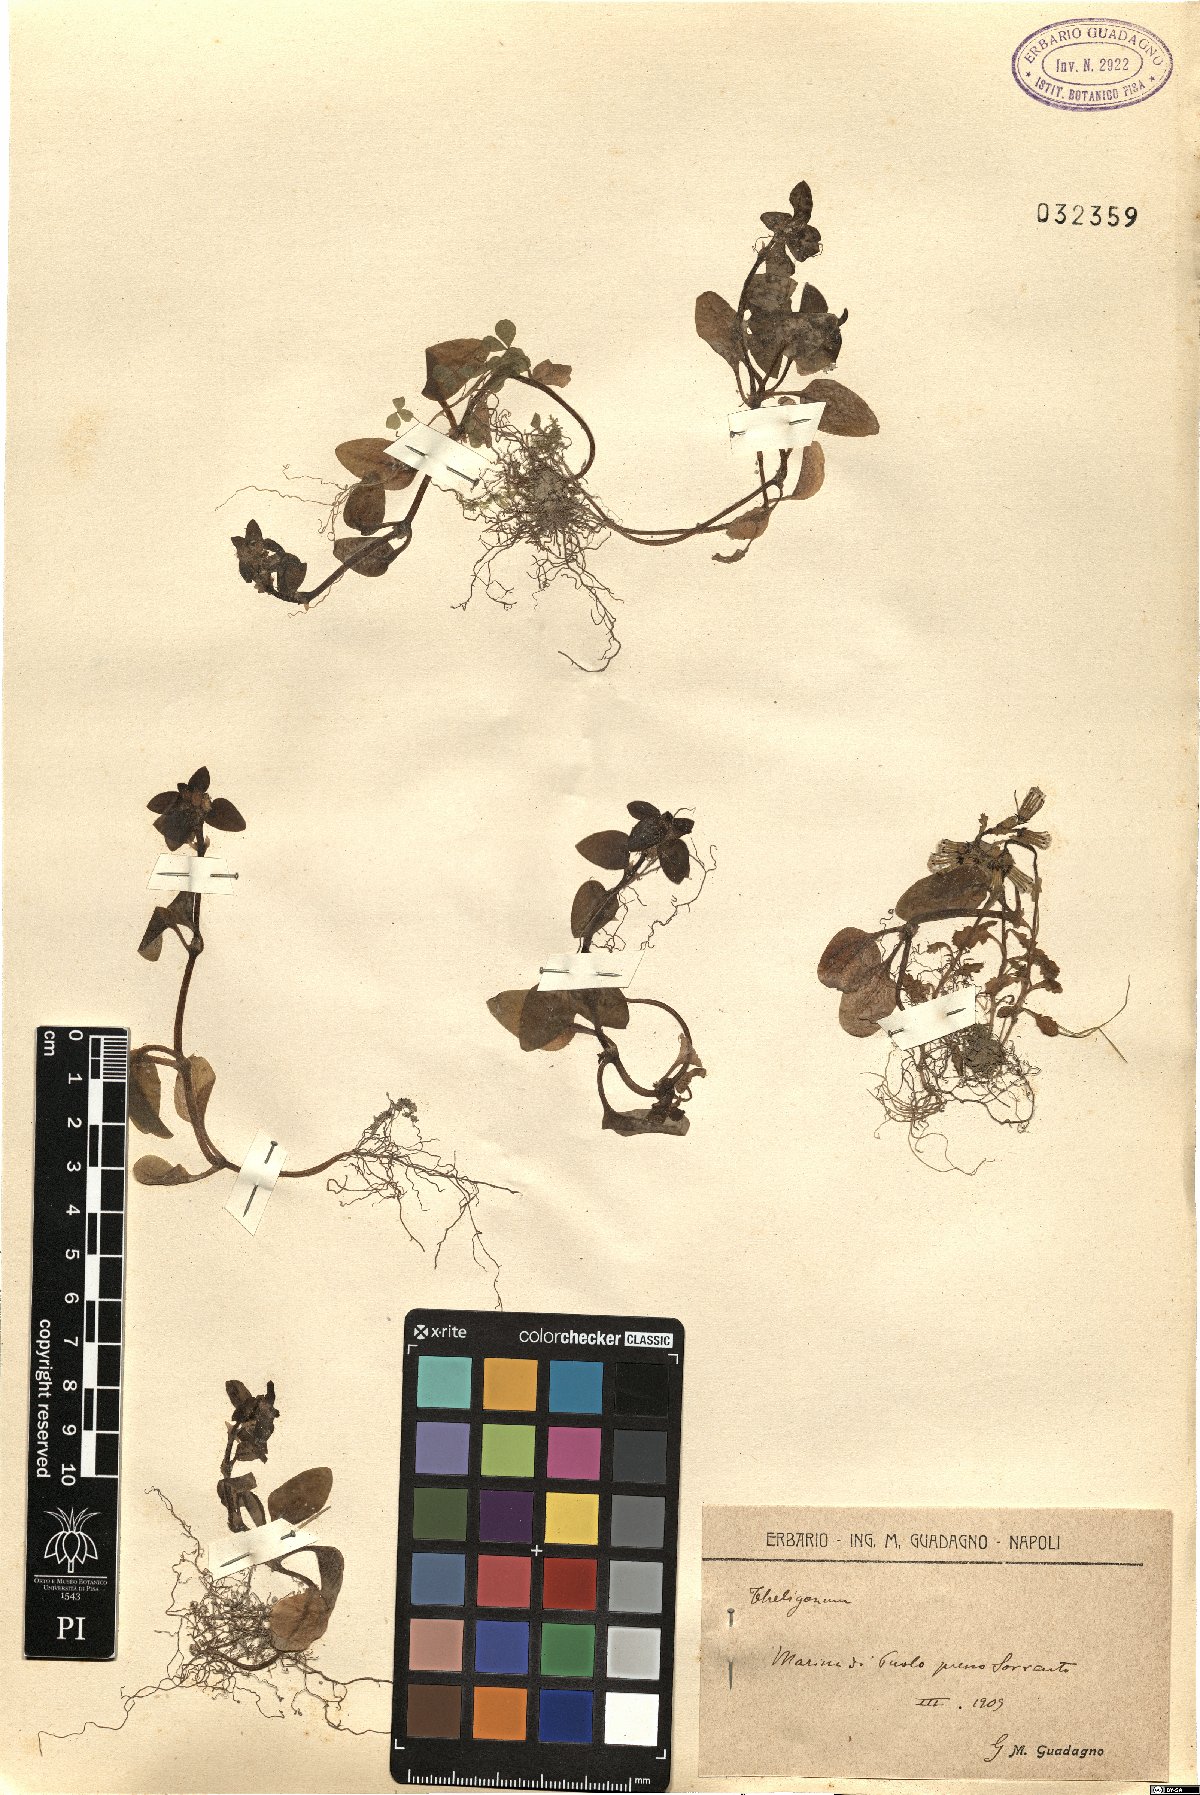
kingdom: Plantae
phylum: Tracheophyta
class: Magnoliopsida
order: Gentianales
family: Rubiaceae
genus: Theligonum
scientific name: Theligonum
